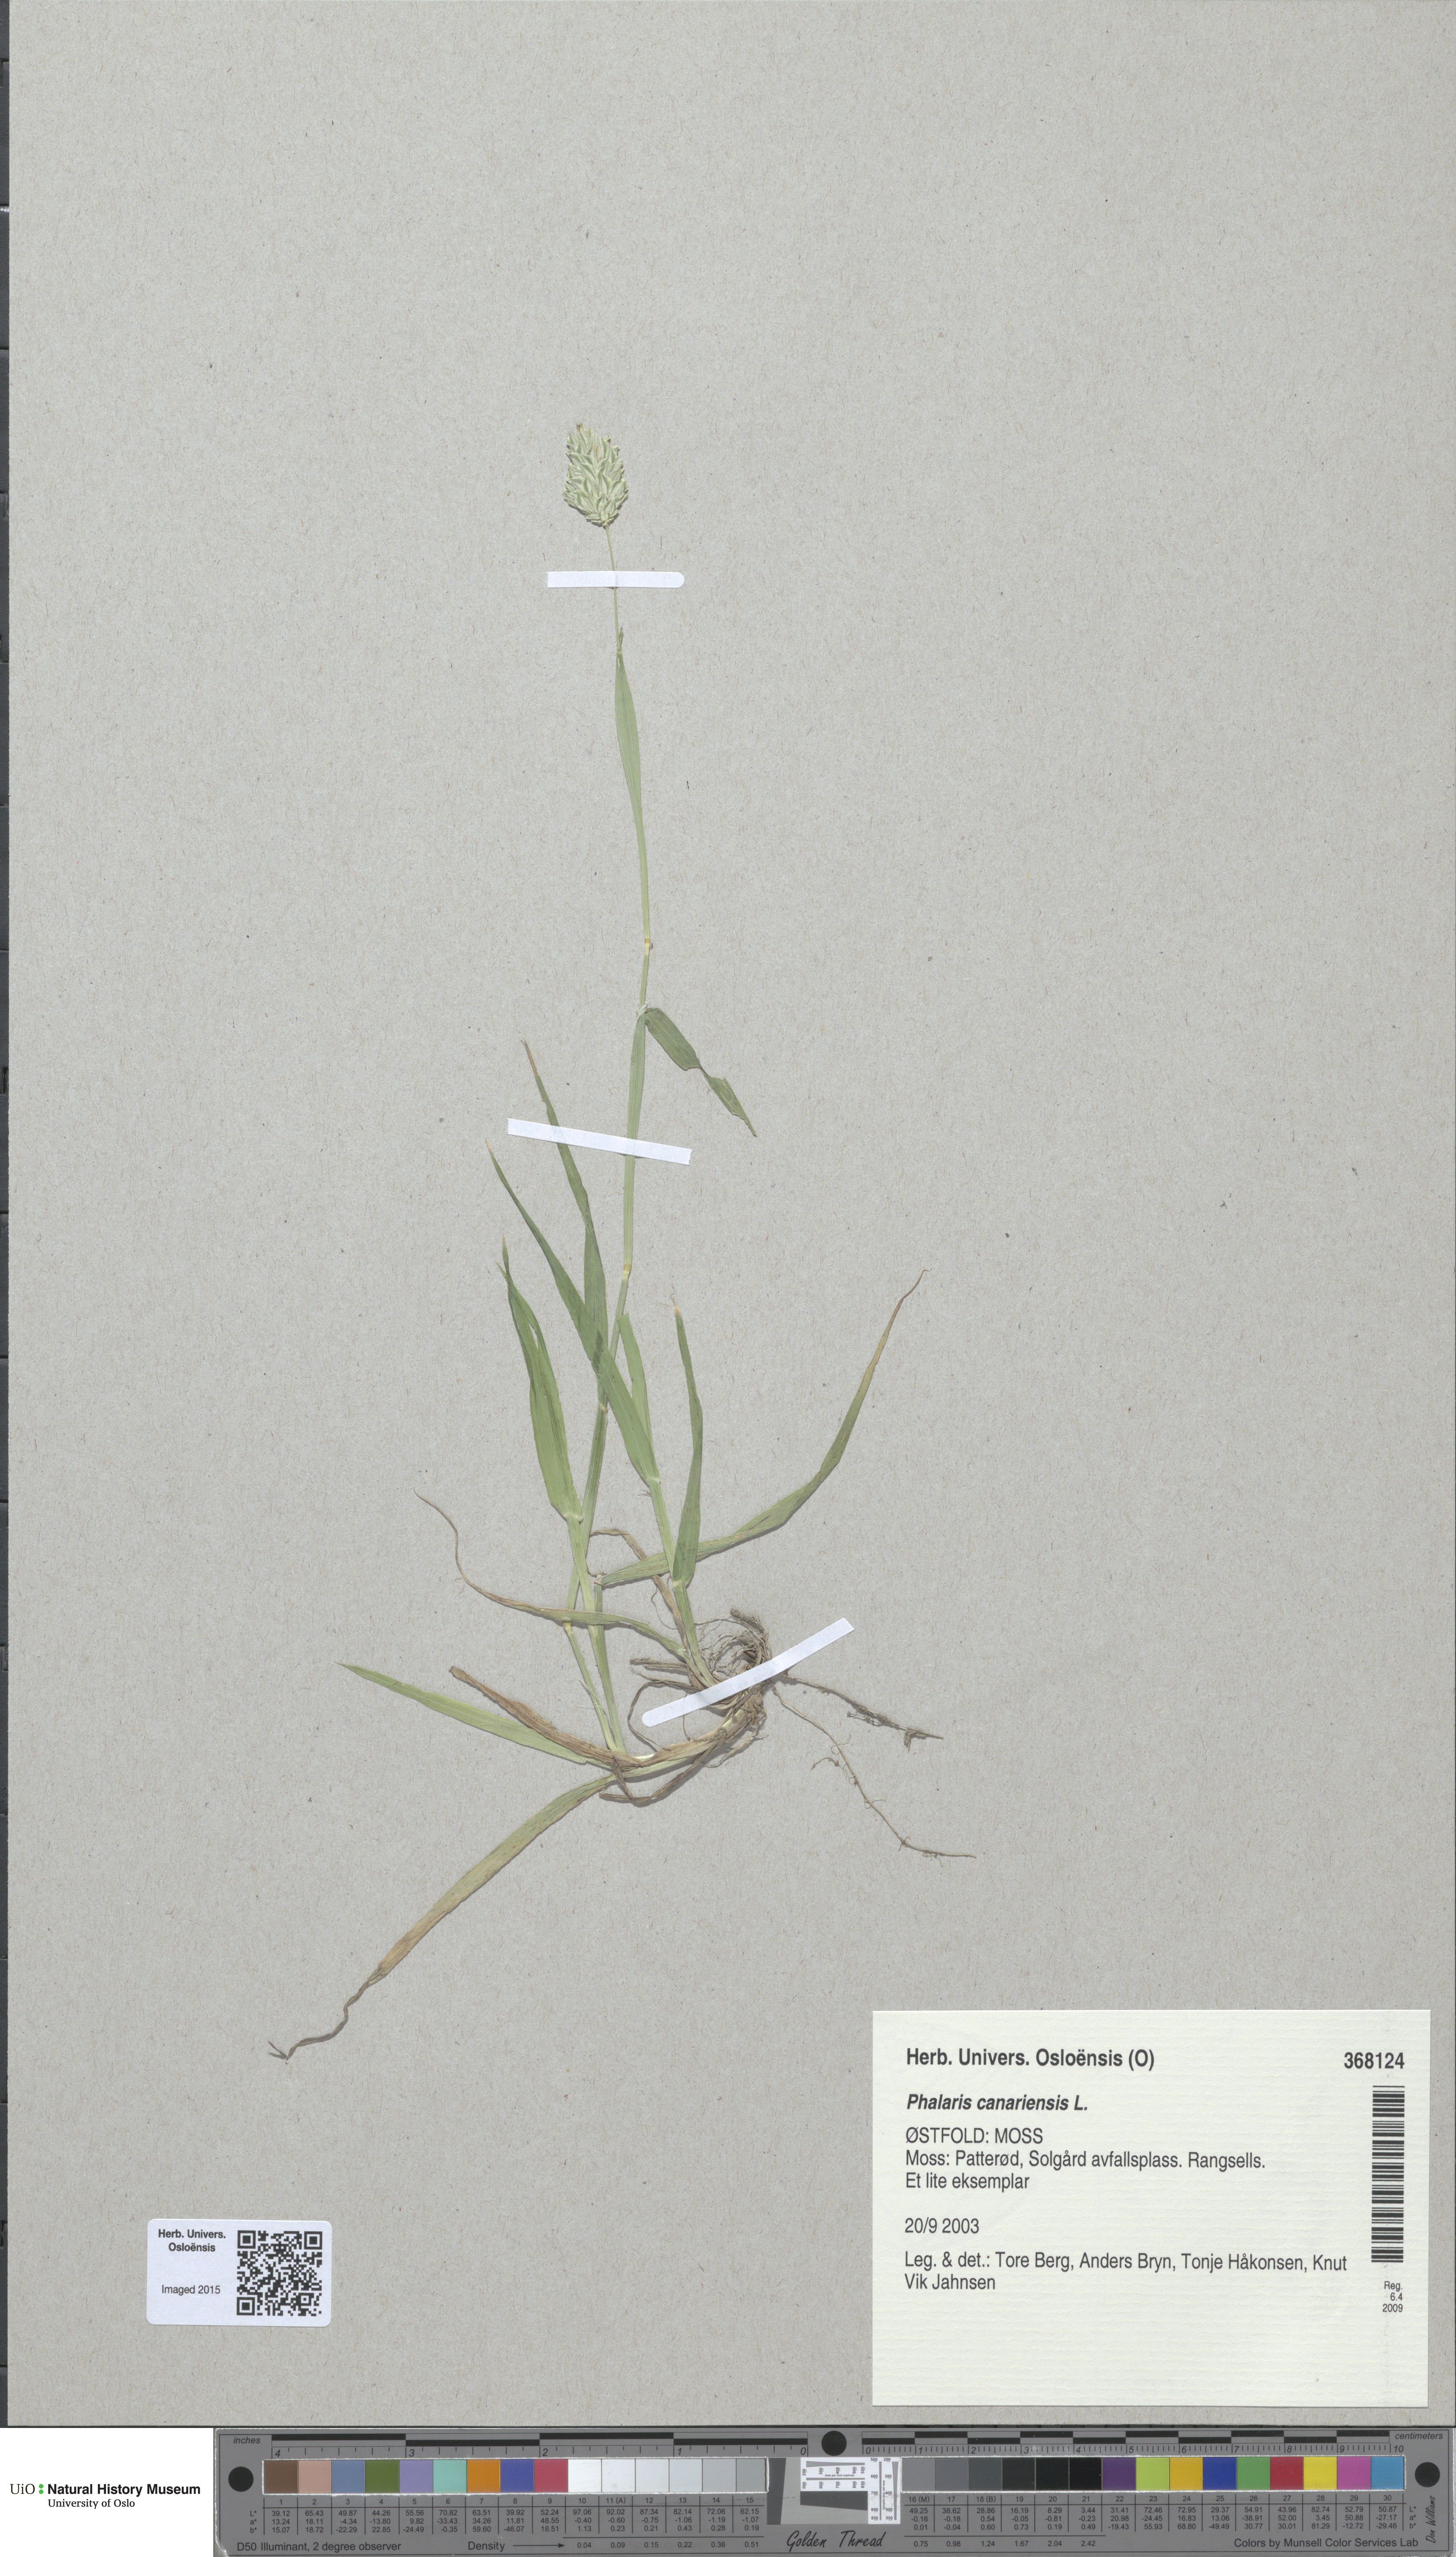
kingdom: Plantae
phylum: Tracheophyta
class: Liliopsida
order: Poales
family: Poaceae
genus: Phalaris
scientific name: Phalaris canariensis
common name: Annual canarygrass
